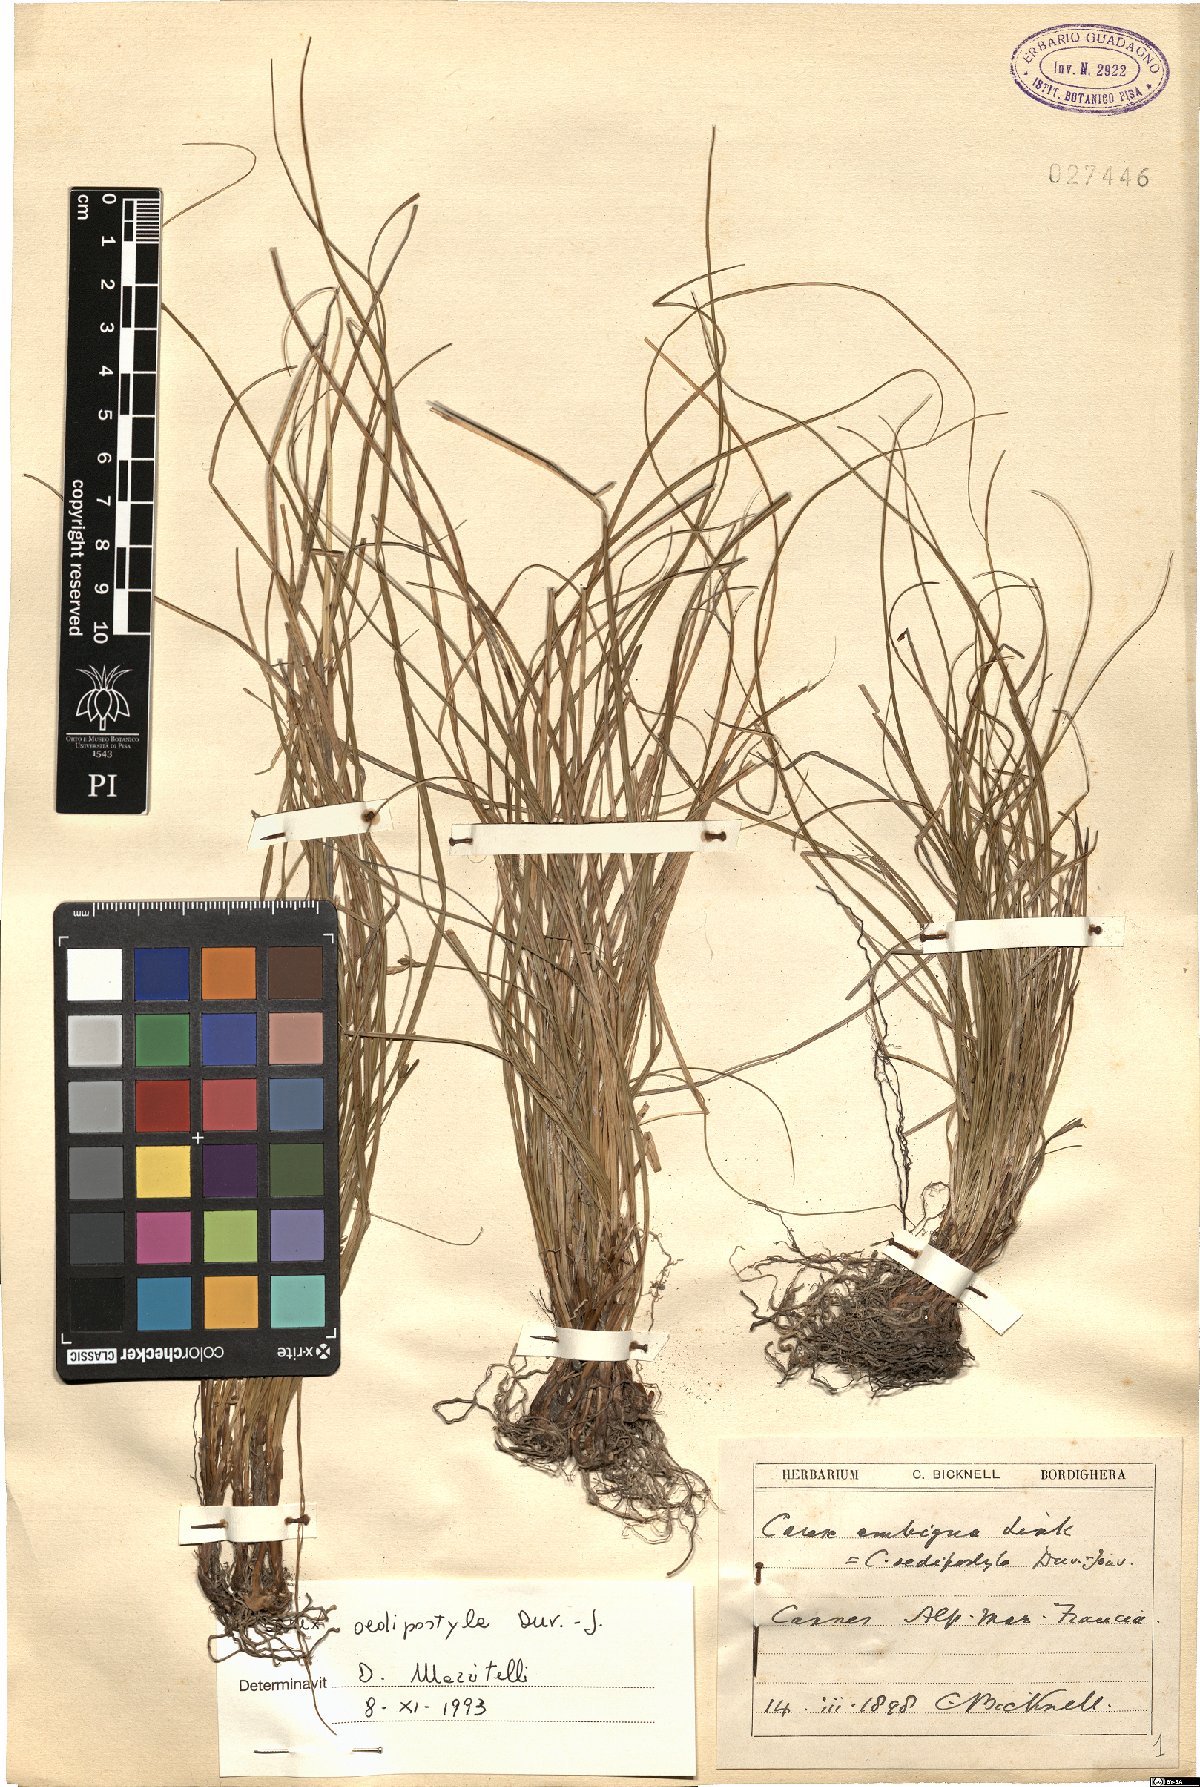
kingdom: Plantae
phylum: Tracheophyta
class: Liliopsida
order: Poales
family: Cyperaceae
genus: Carex
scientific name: Carex oedipostyla
